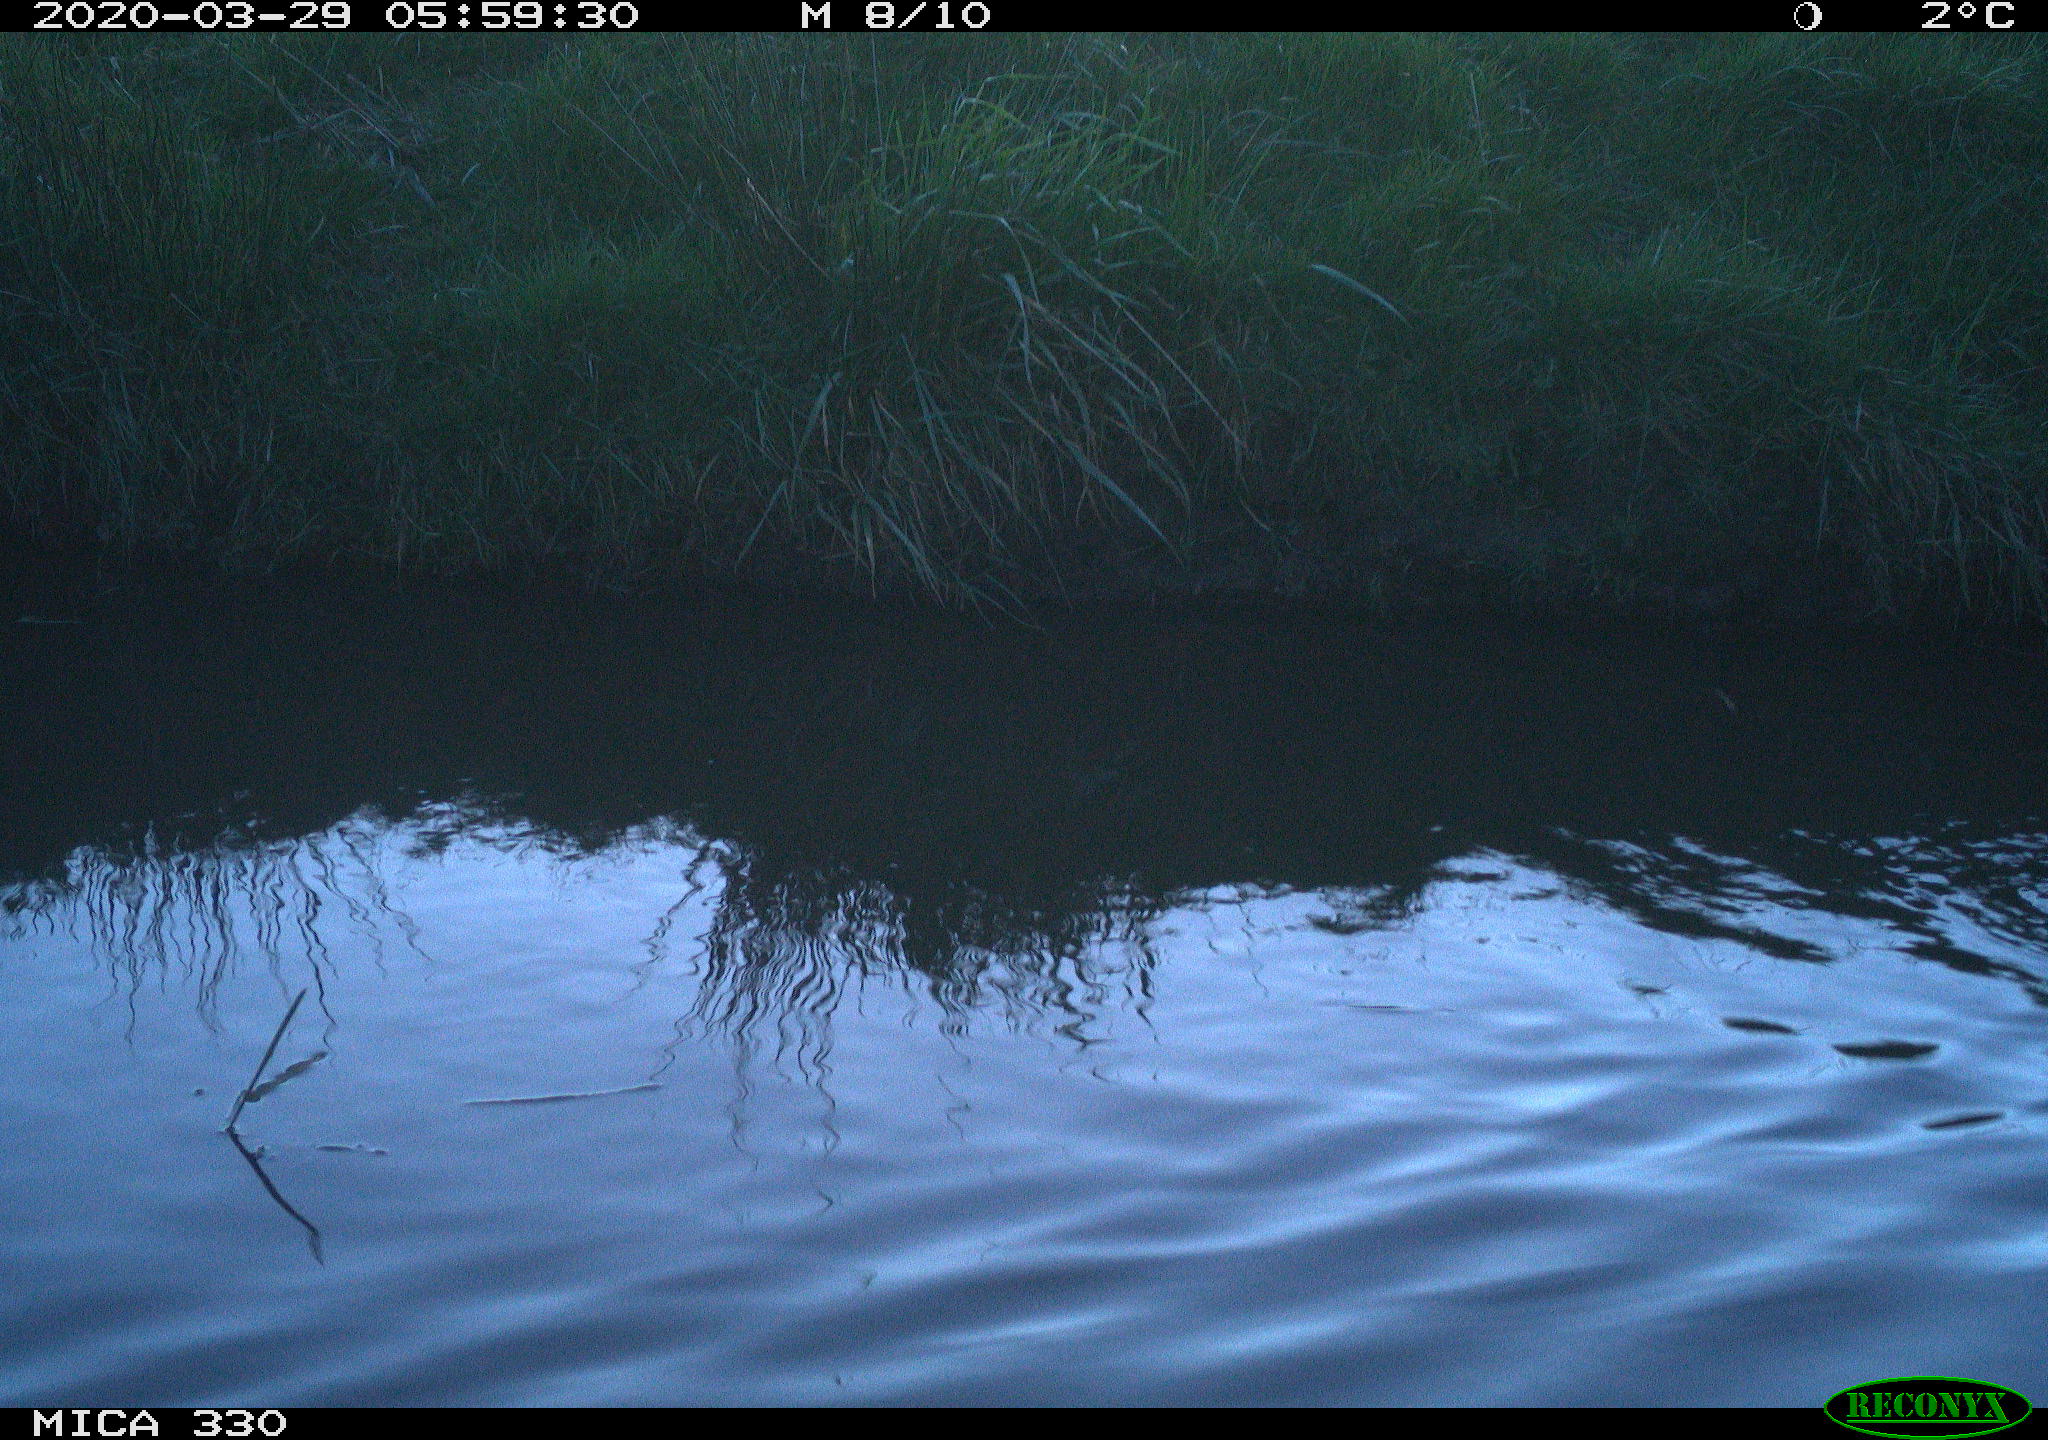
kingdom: Animalia
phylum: Chordata
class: Aves
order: Anseriformes
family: Anatidae
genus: Anas
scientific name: Anas platyrhynchos
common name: Mallard
